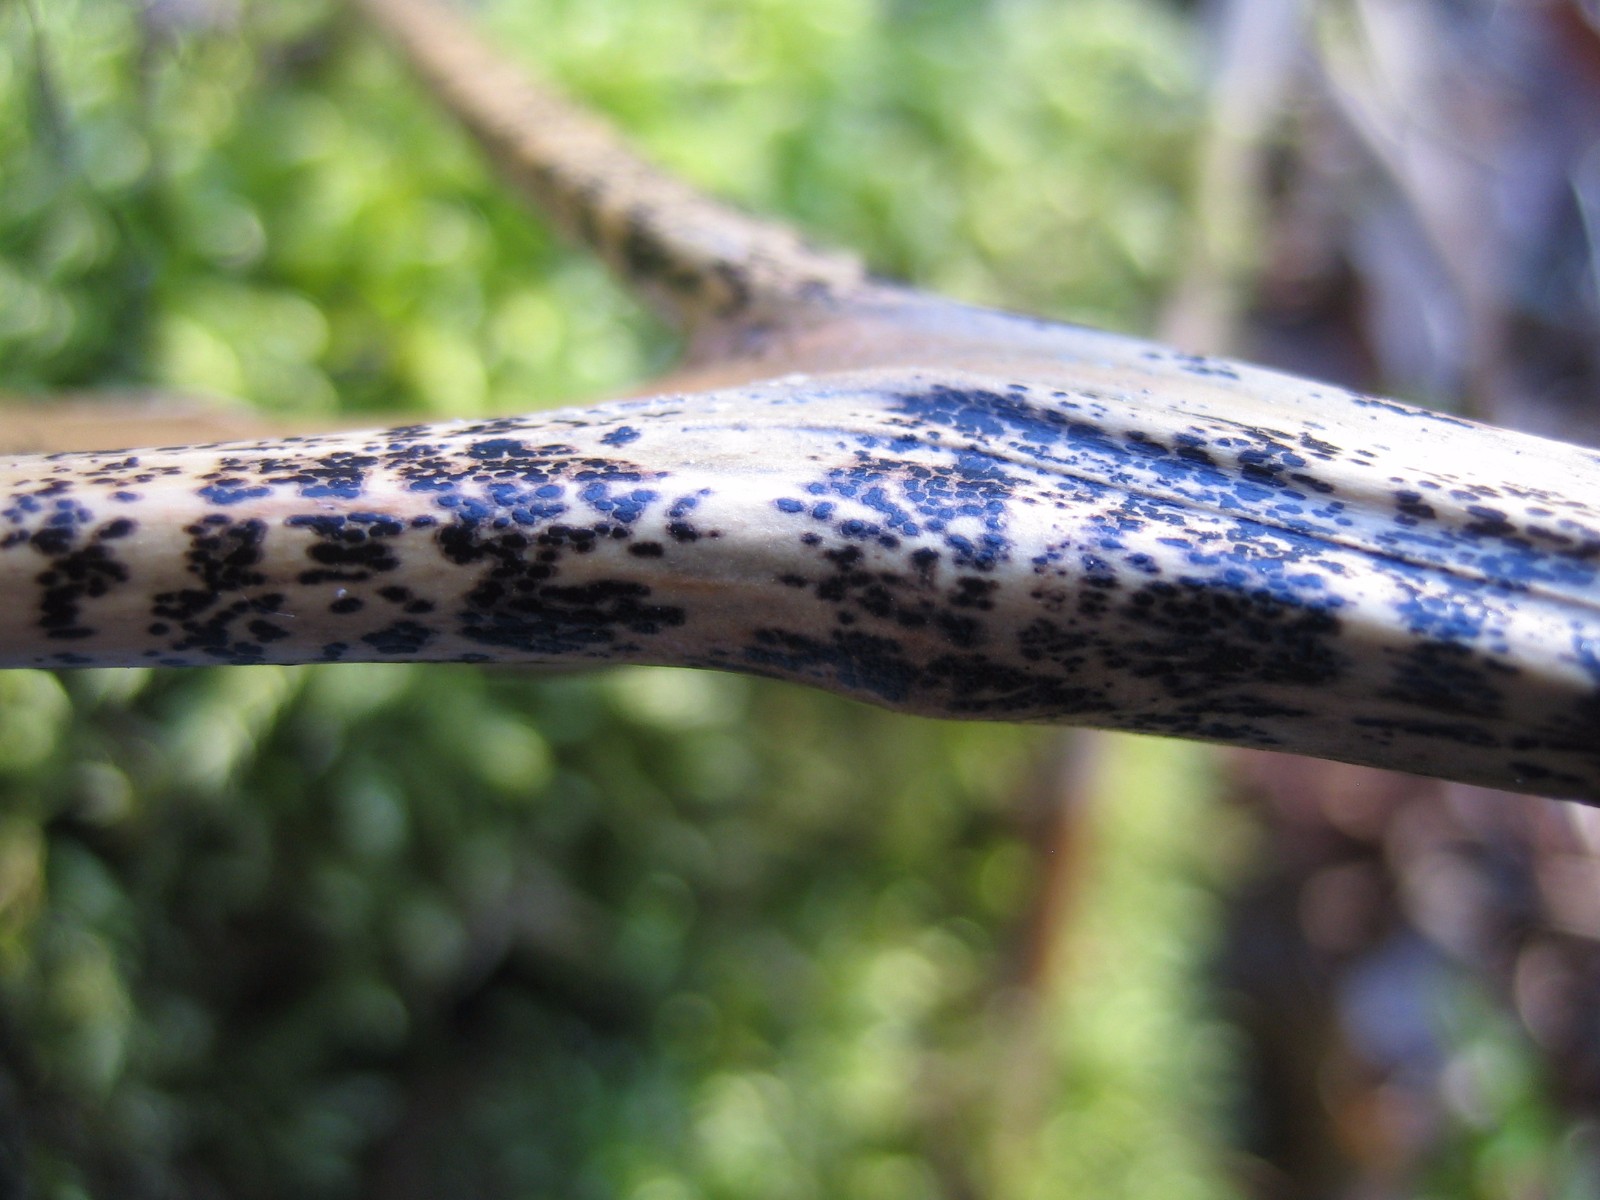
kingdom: Fungi
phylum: Ascomycota
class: Dothideomycetes
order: Pleosporales
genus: Rhopographus
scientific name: Rhopographus filicinus
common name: Bracken map
